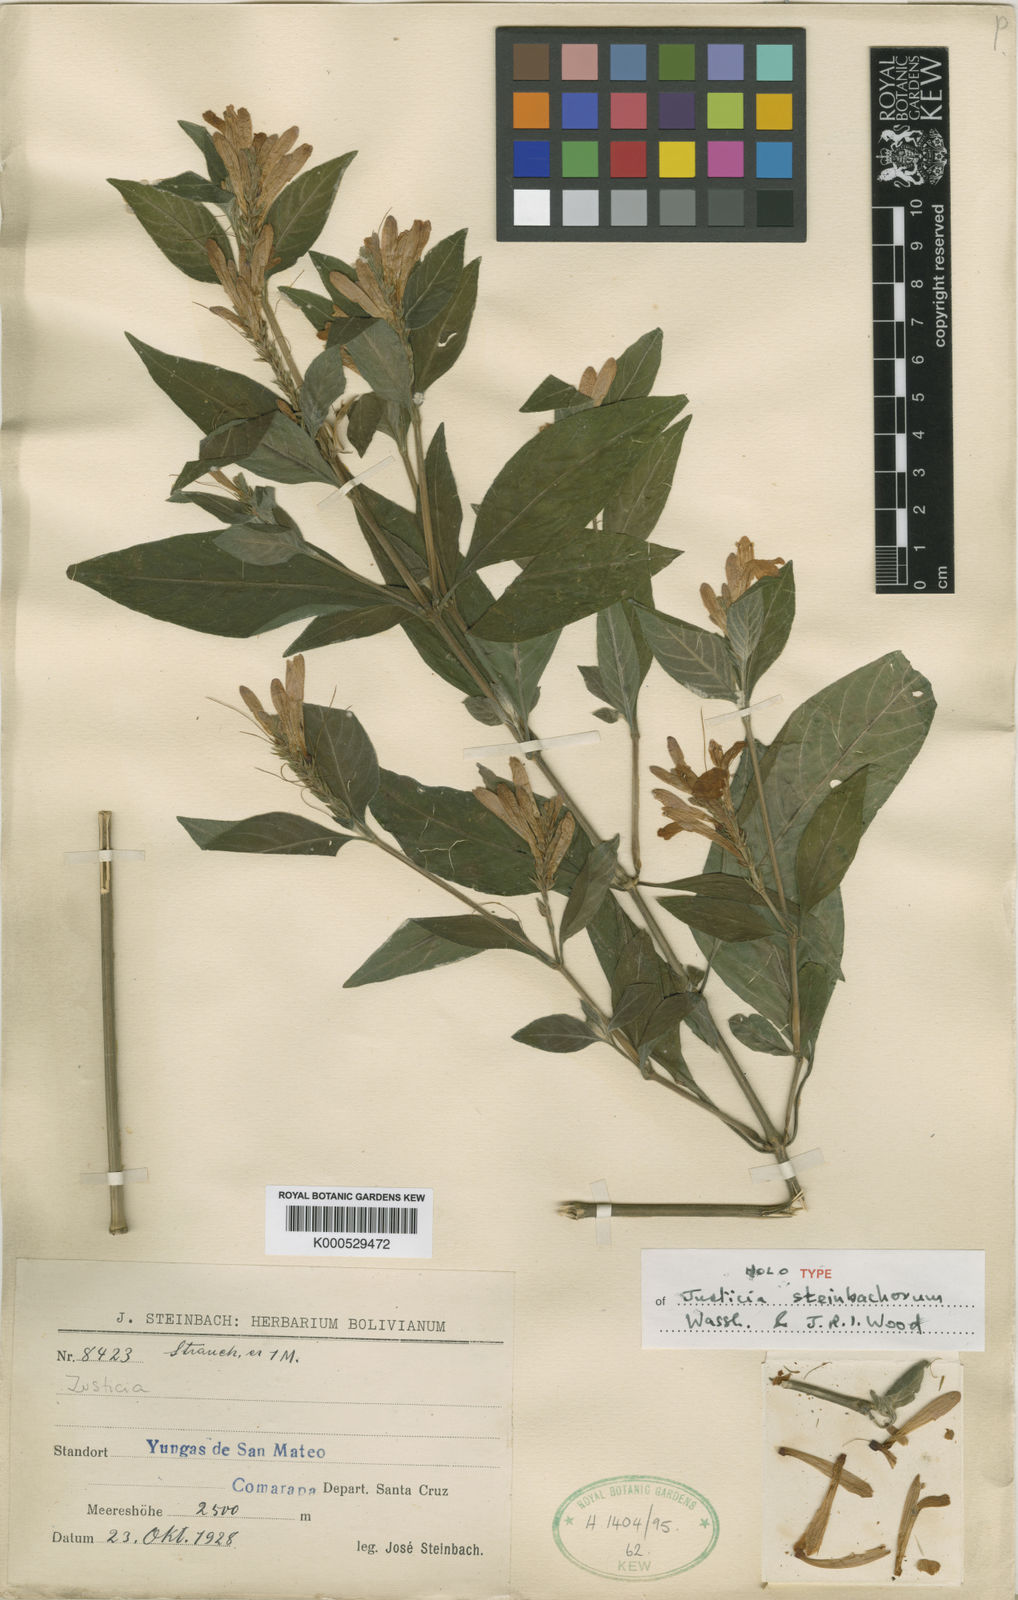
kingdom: Plantae
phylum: Tracheophyta
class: Magnoliopsida
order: Lamiales
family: Acanthaceae
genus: Justicia
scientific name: Justicia steinbachiorum
